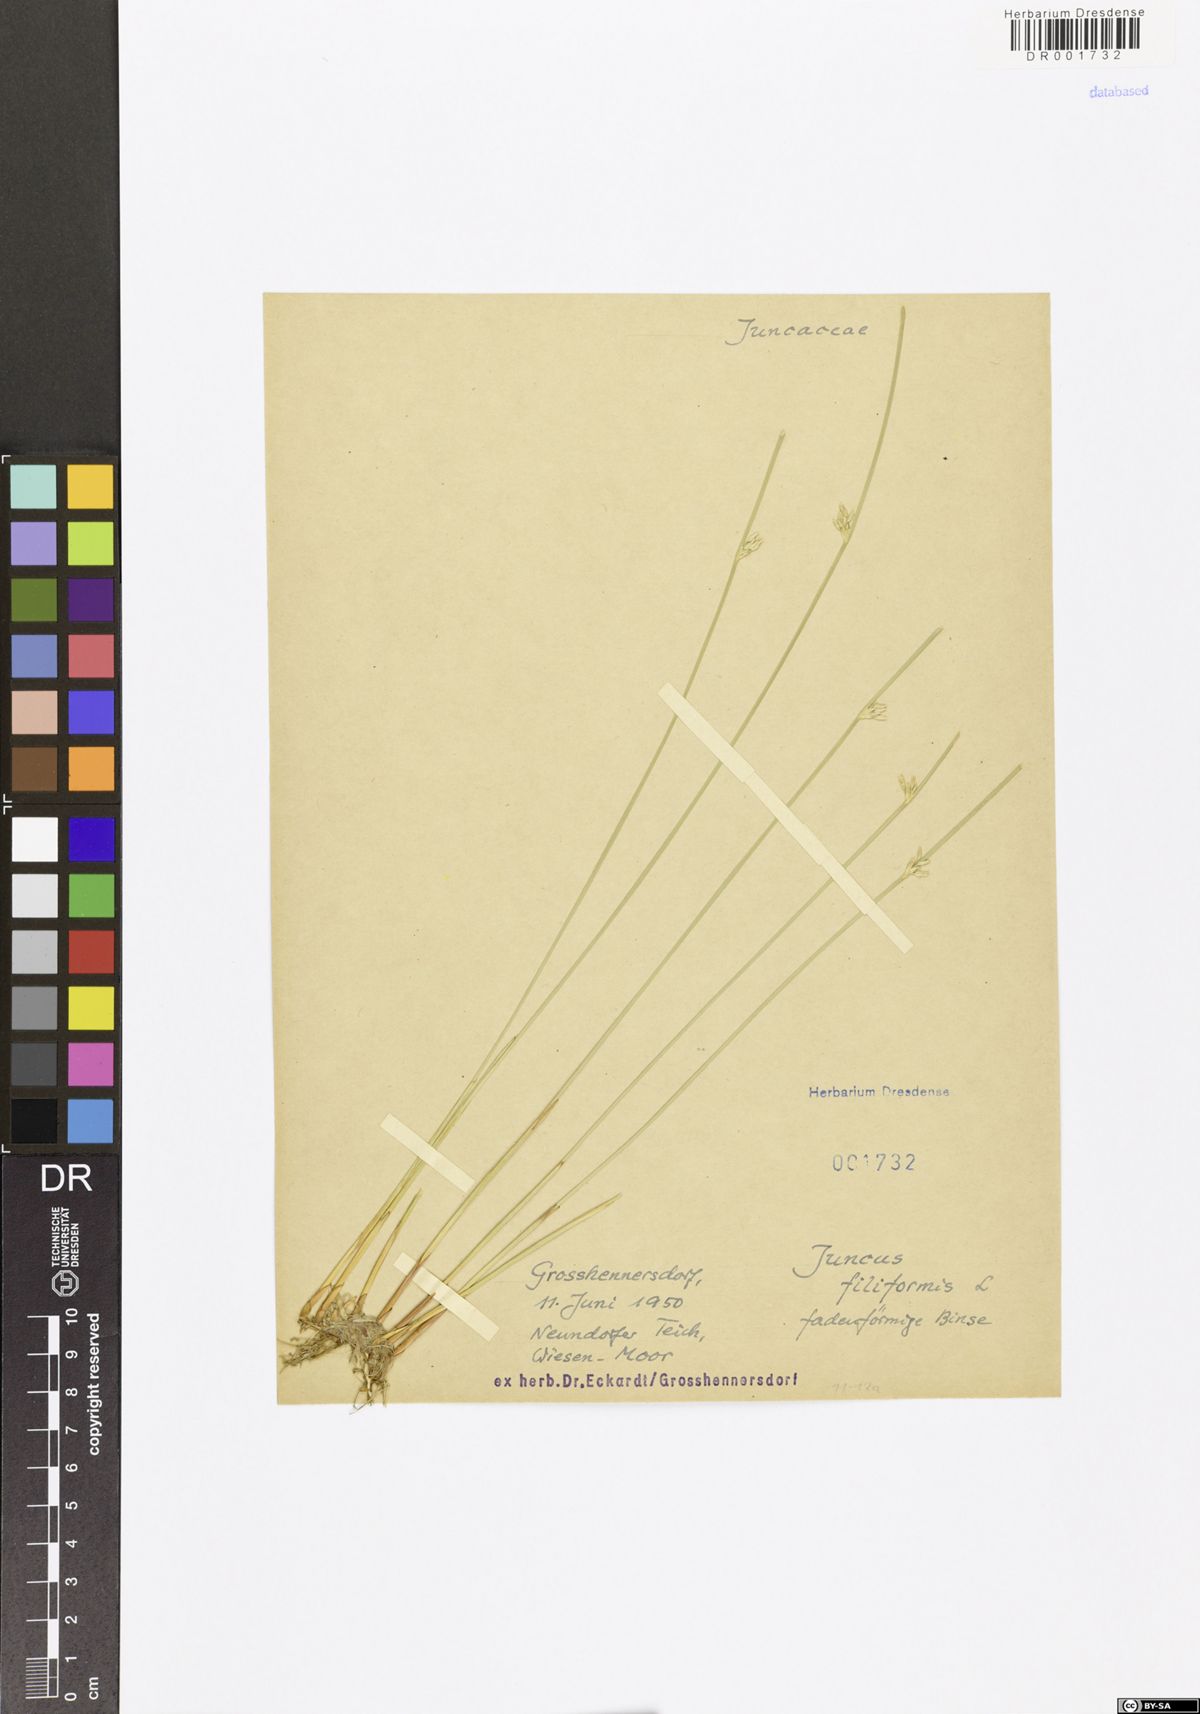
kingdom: Plantae
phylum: Tracheophyta
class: Liliopsida
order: Poales
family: Juncaceae
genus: Juncus
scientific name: Juncus filiformis
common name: Thread rush
